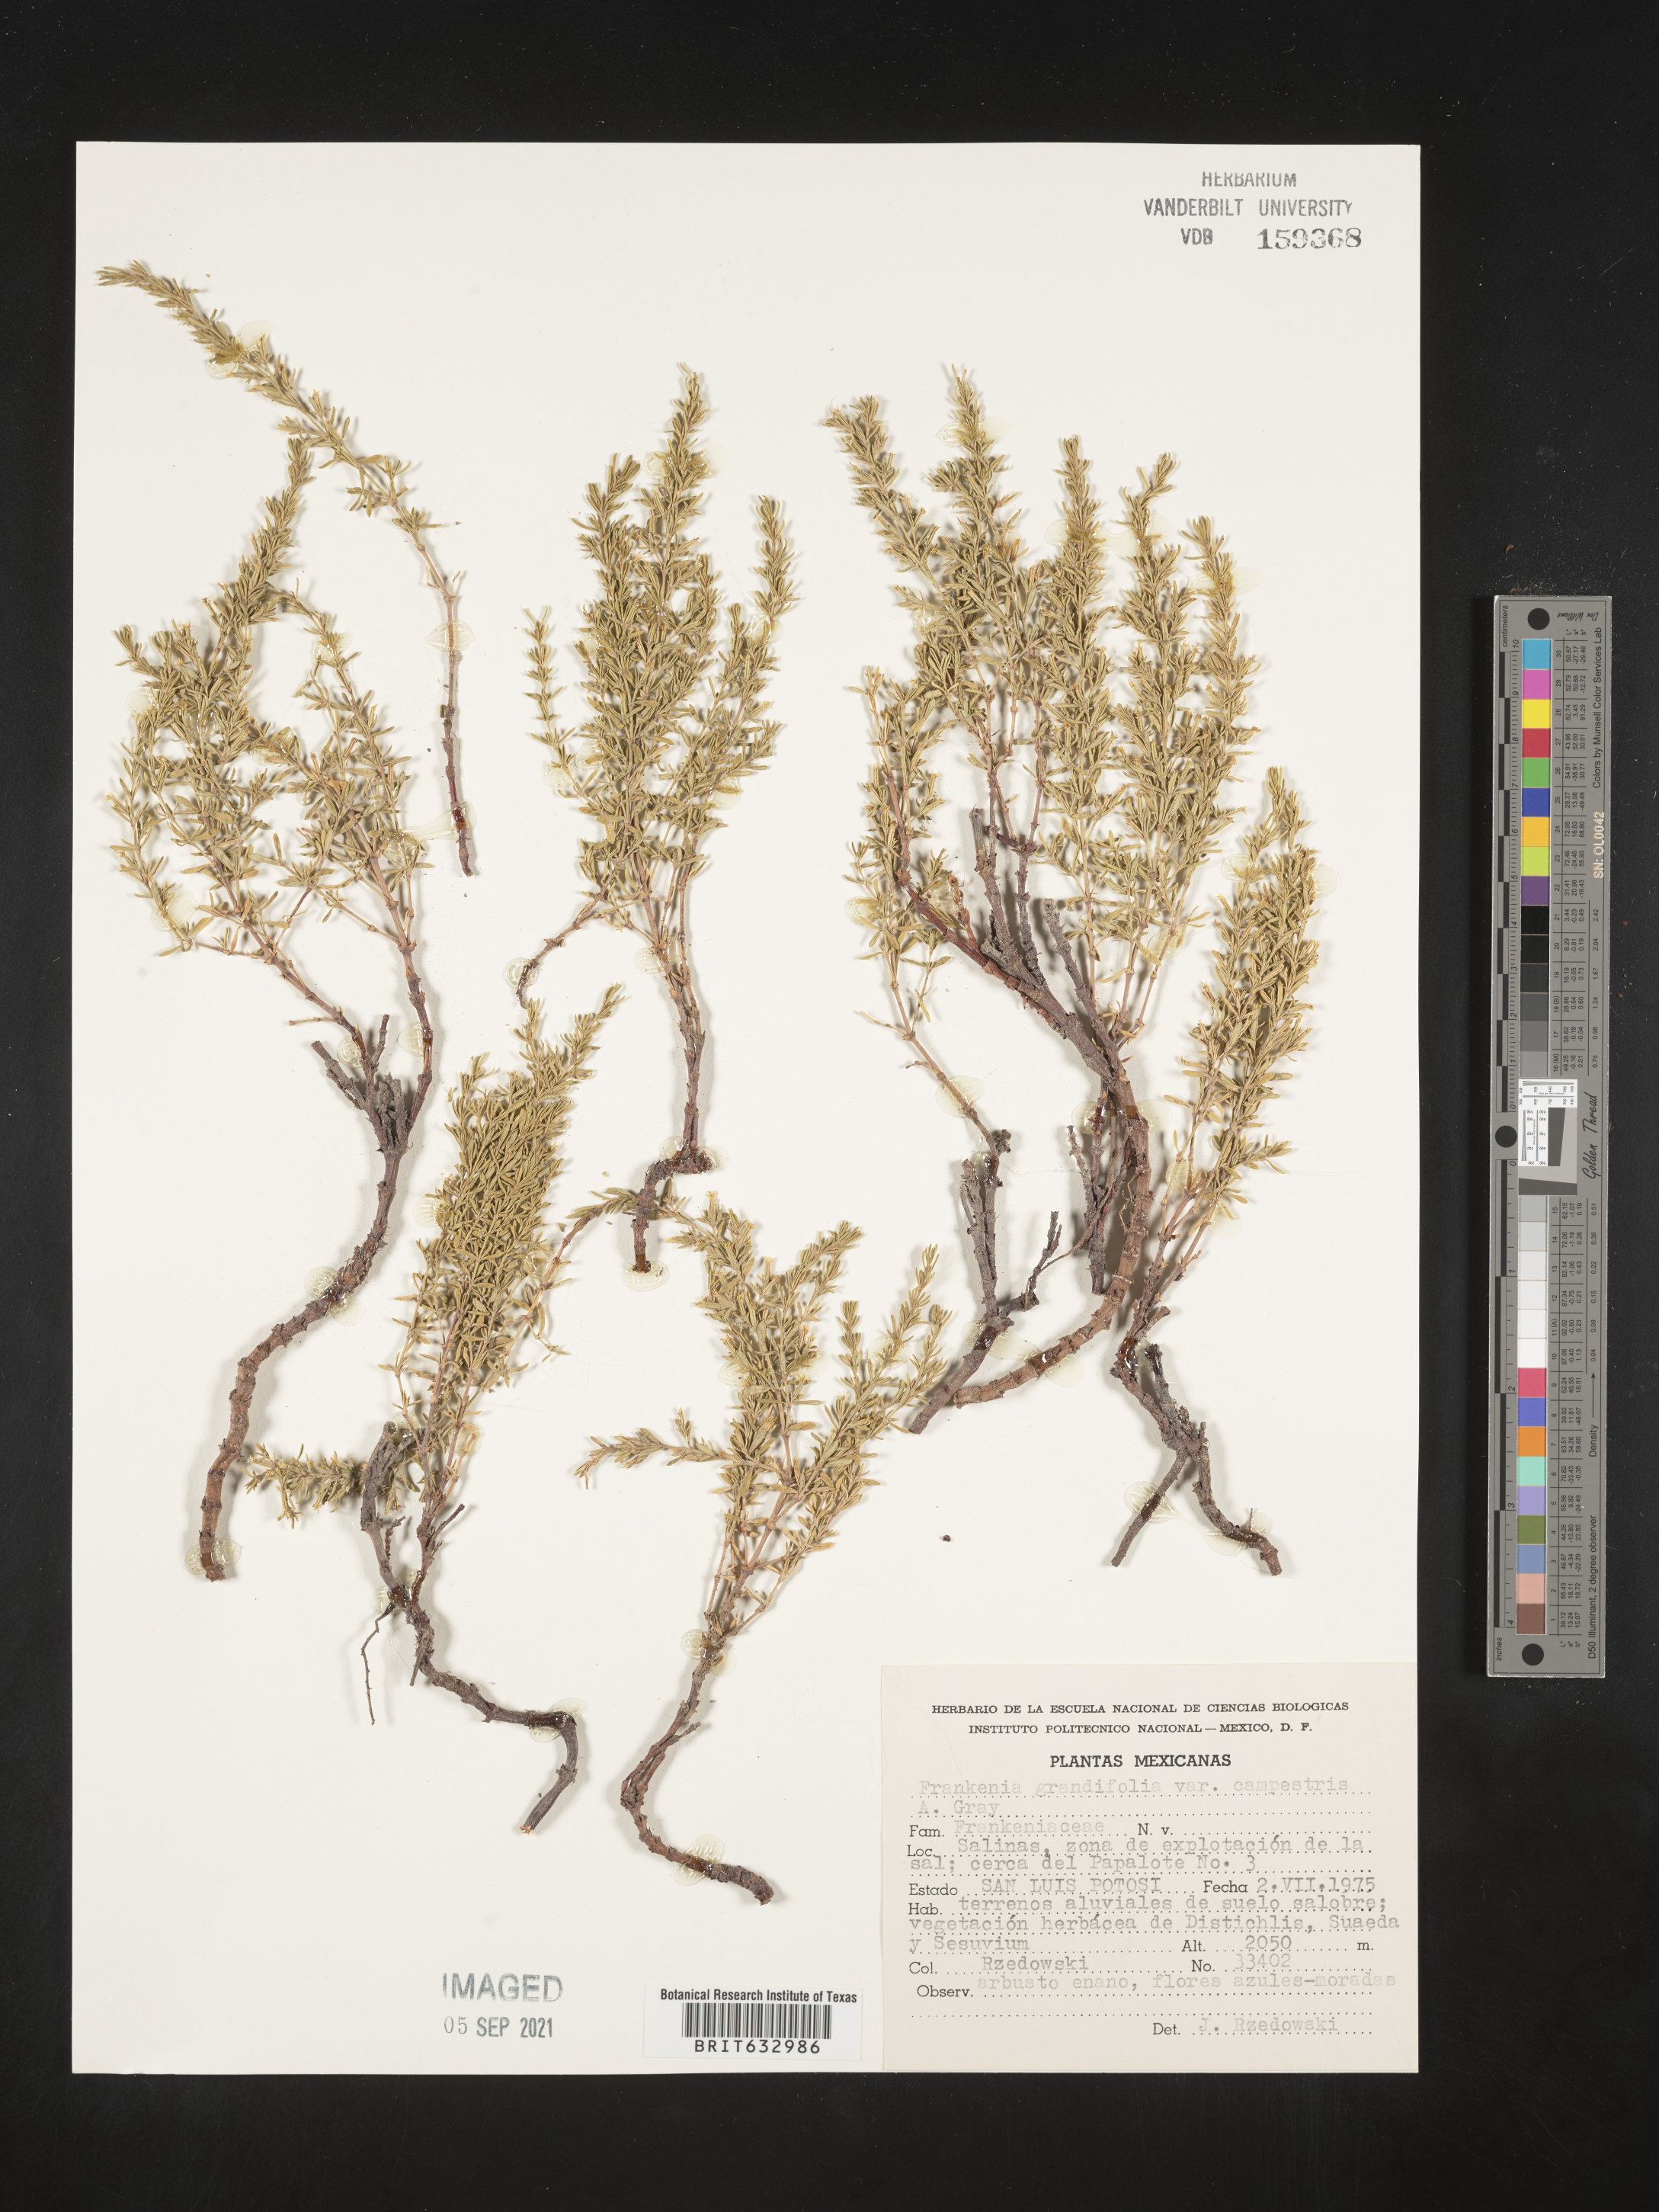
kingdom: Plantae
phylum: Tracheophyta
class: Magnoliopsida
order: Caryophyllales
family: Frankeniaceae
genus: Frankenia
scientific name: Frankenia
